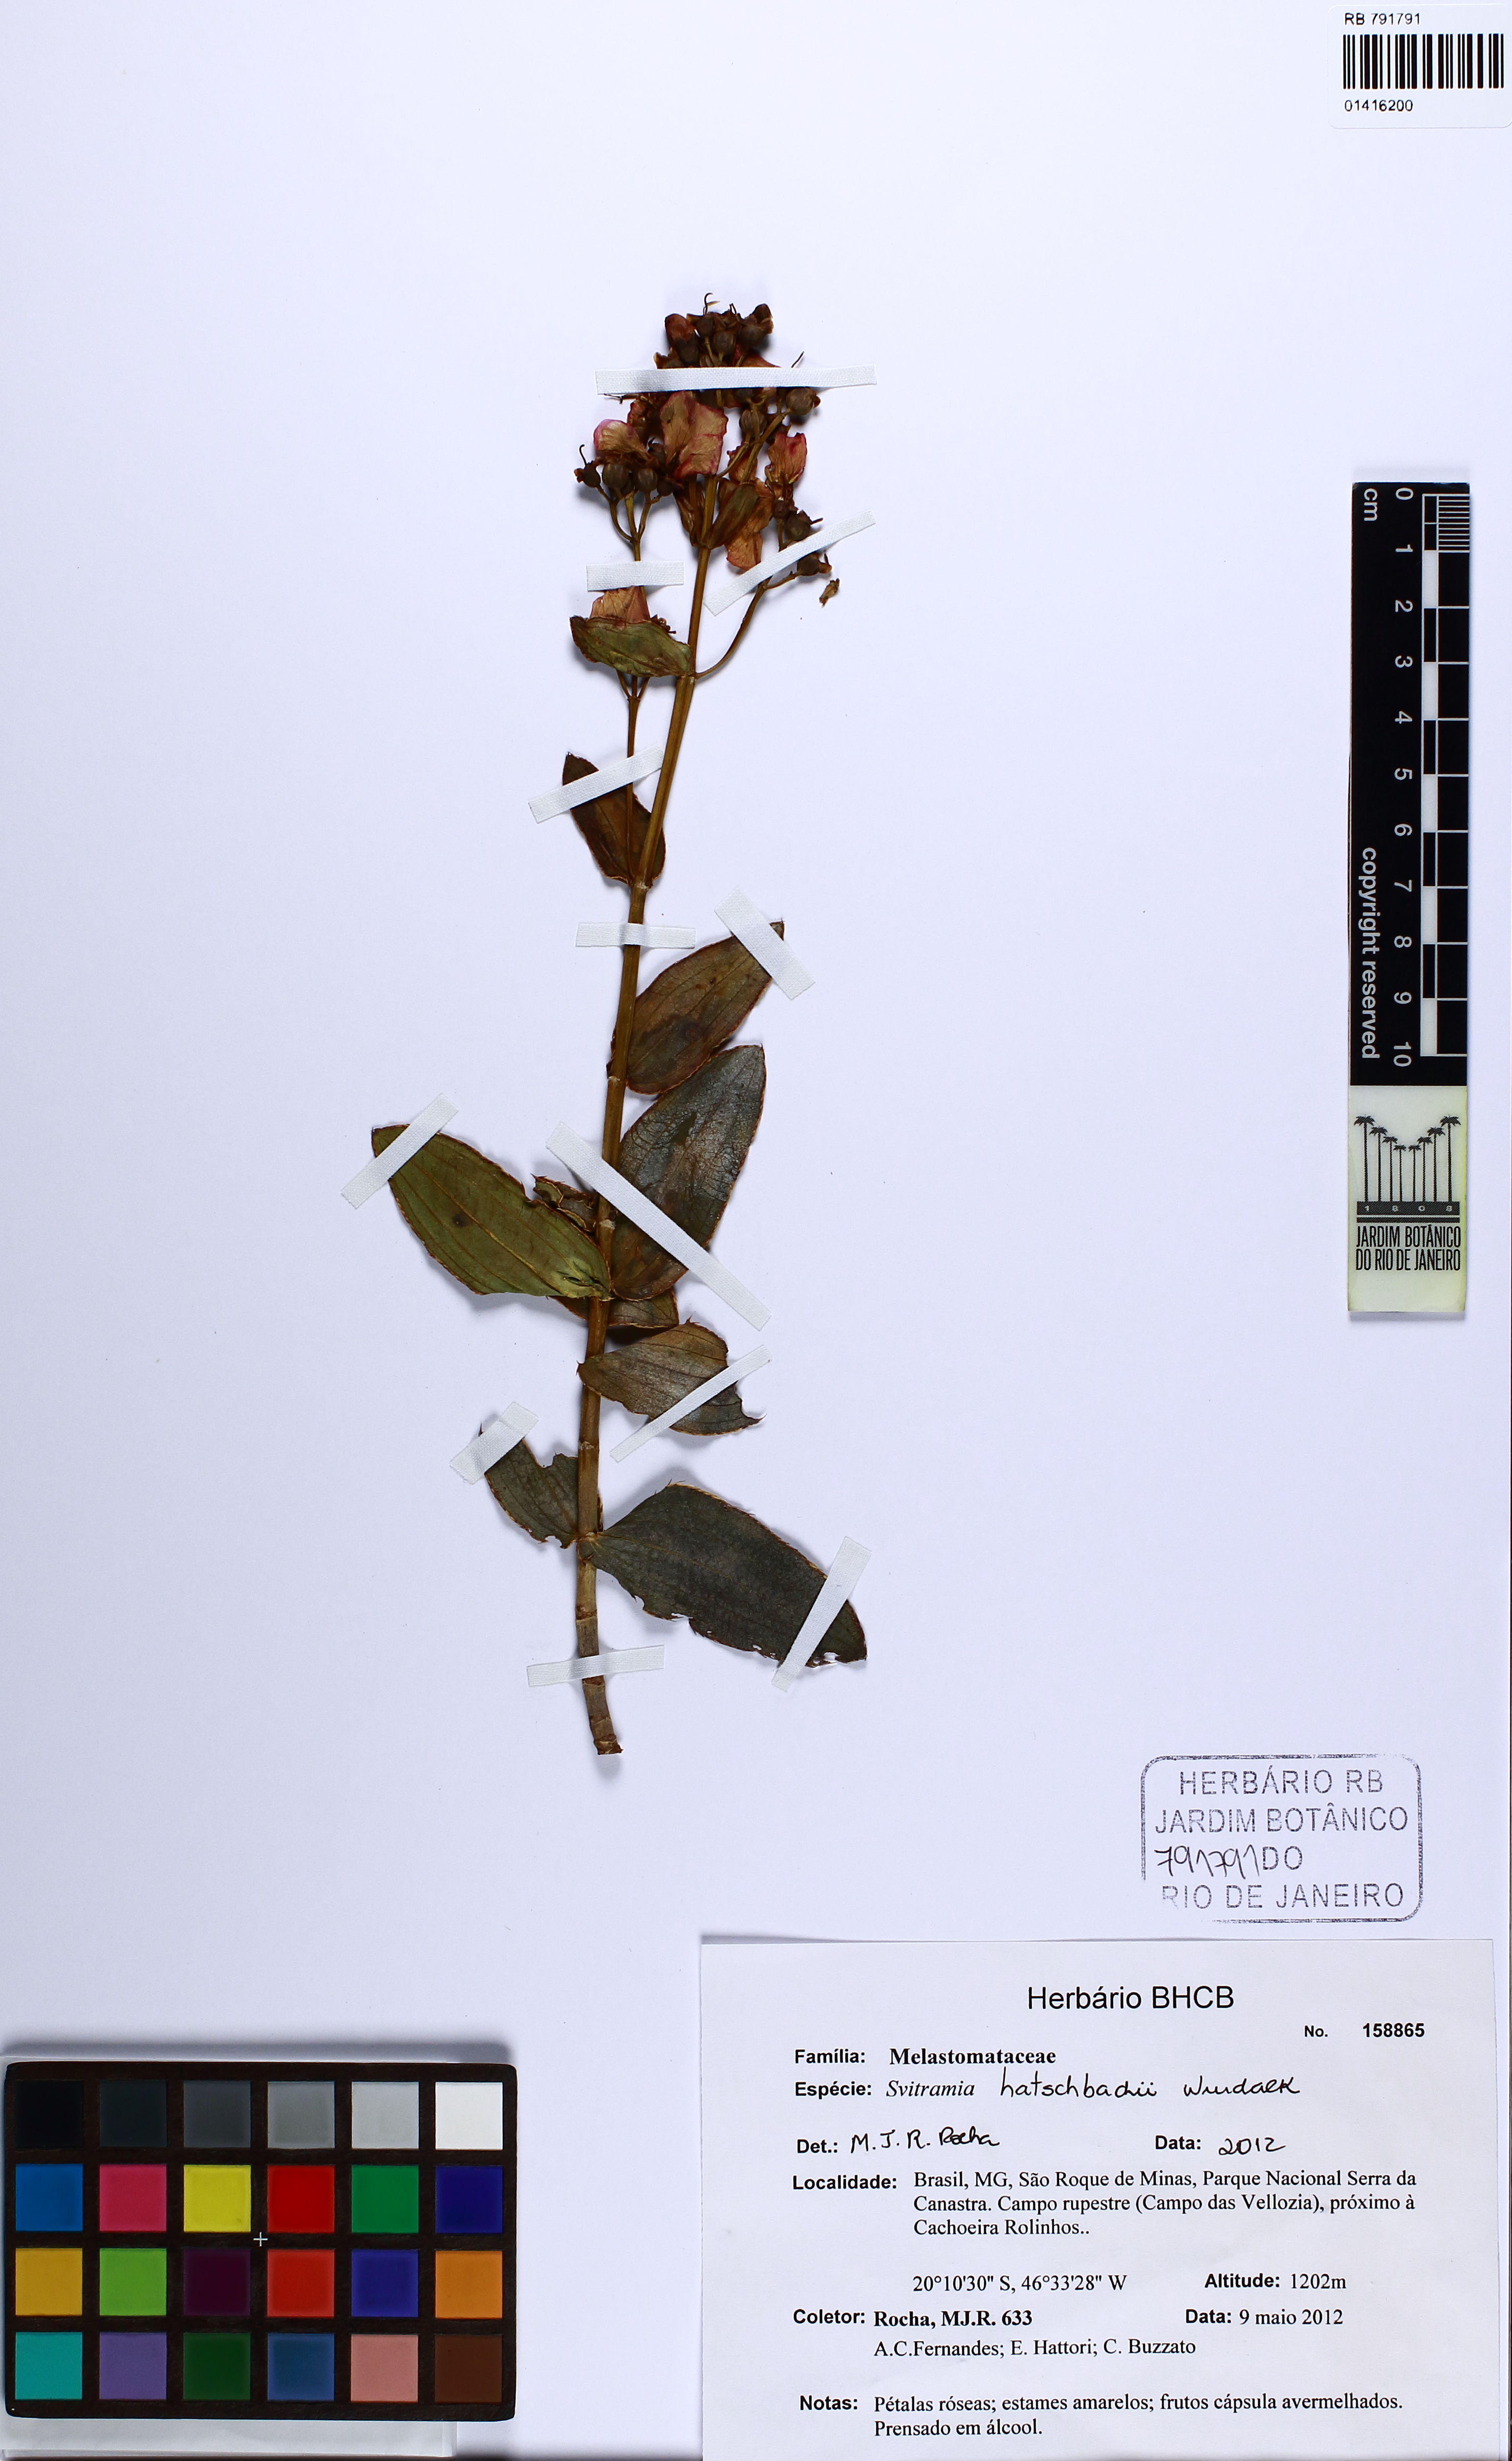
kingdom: Plantae
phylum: Tracheophyta
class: Magnoliopsida
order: Myrtales
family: Melastomataceae
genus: Pleroma
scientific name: Pleroma gertii
